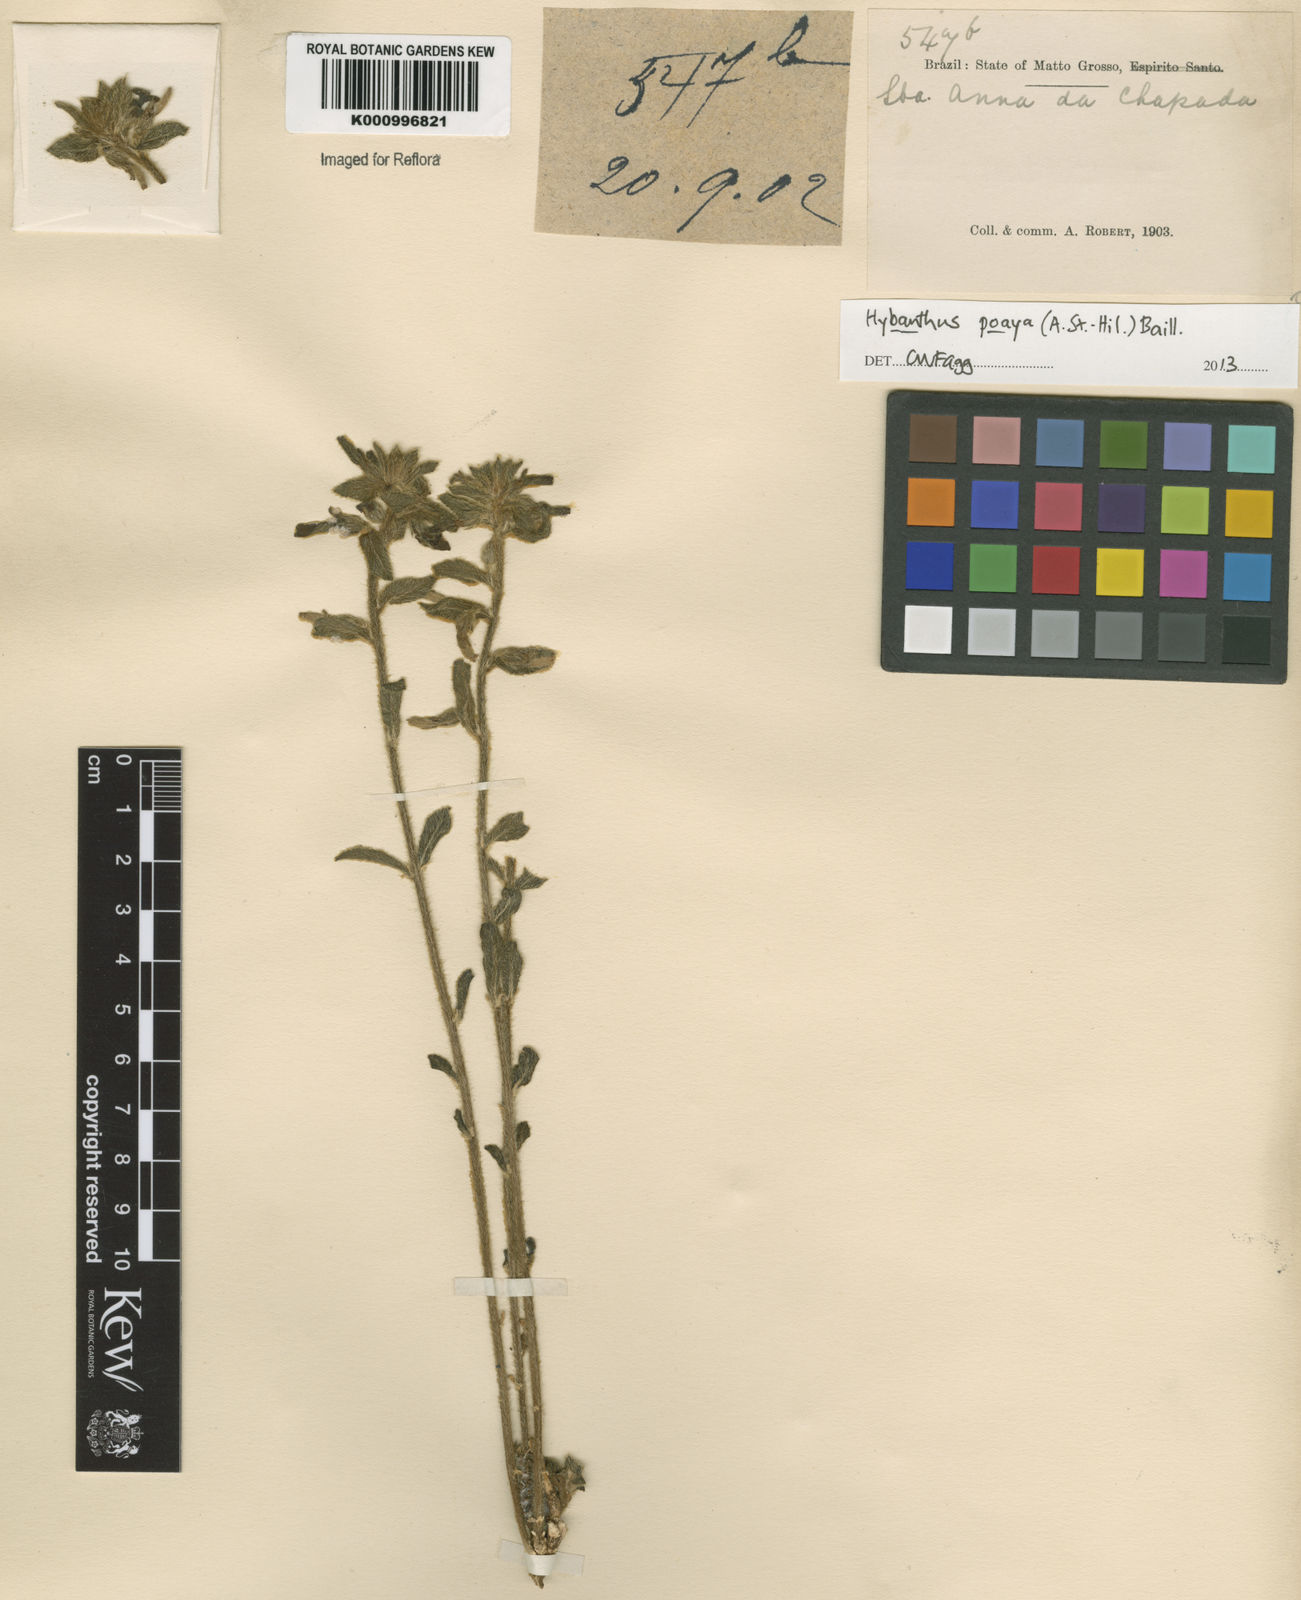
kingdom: Plantae
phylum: Tracheophyta
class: Magnoliopsida
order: Malpighiales
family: Violaceae
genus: Pombalia
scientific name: Pombalia poaya
